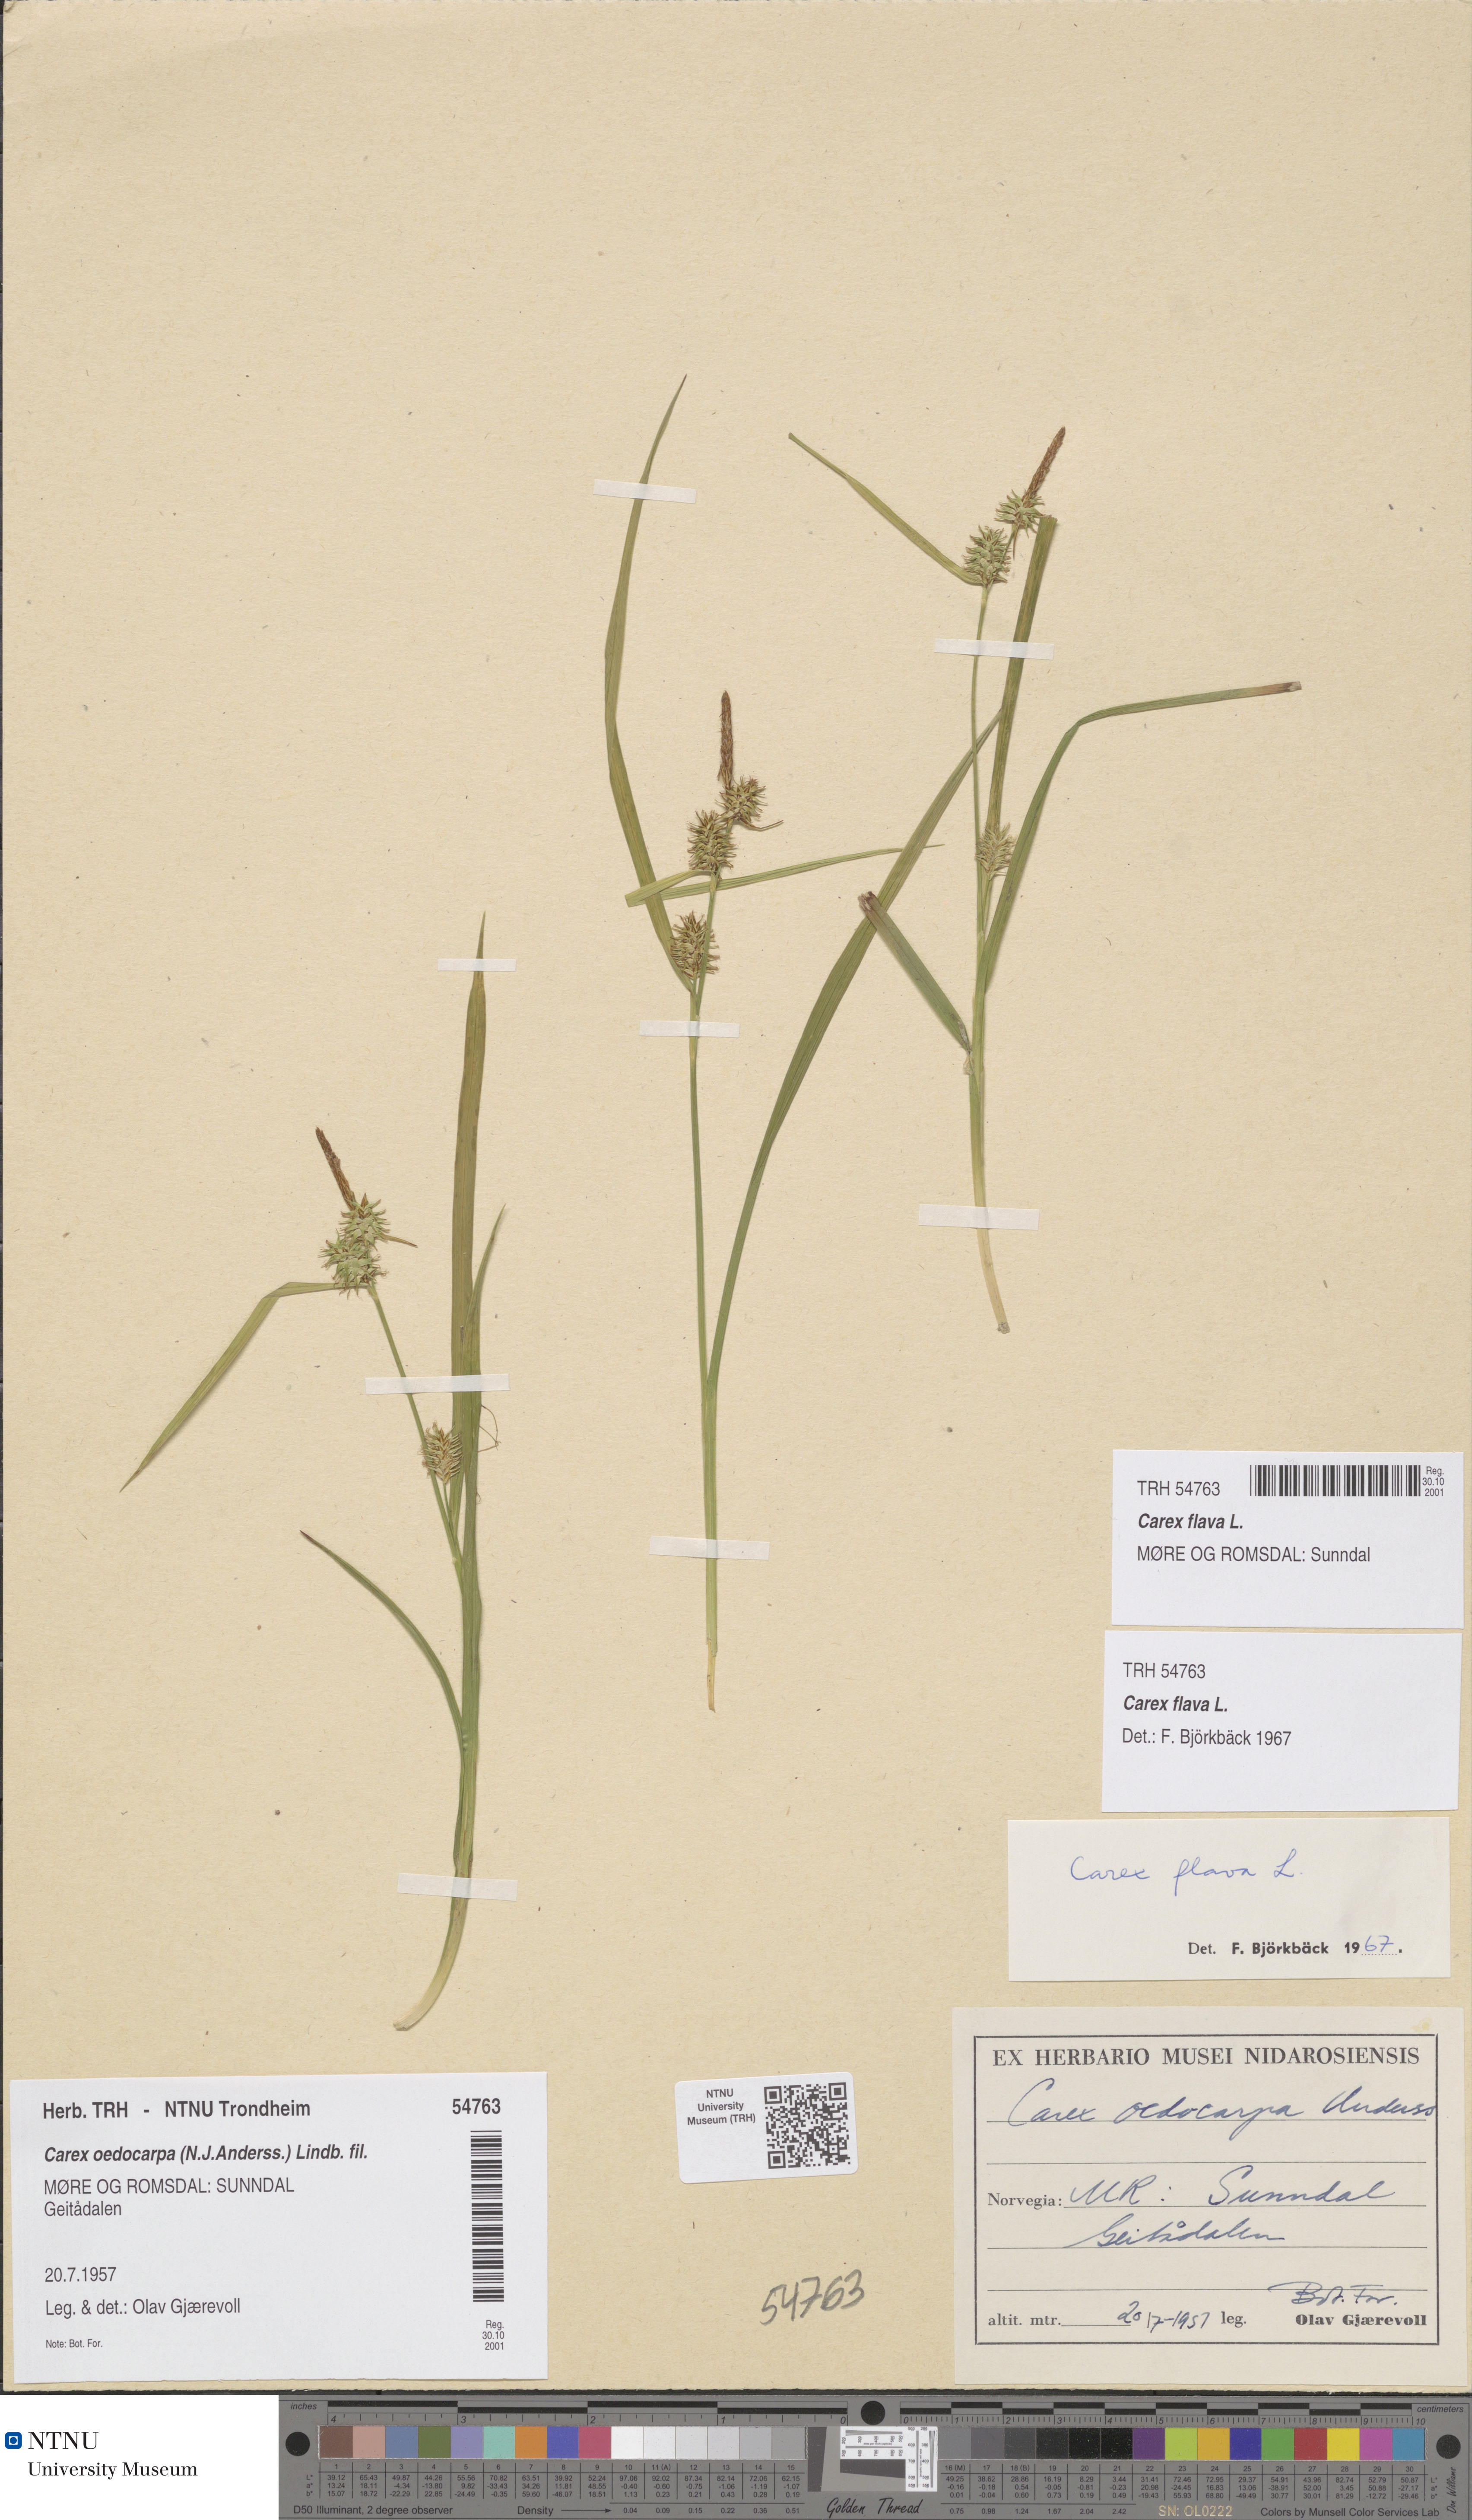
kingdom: Plantae
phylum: Tracheophyta
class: Liliopsida
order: Poales
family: Cyperaceae
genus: Carex
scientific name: Carex flava
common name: Large yellow-sedge
